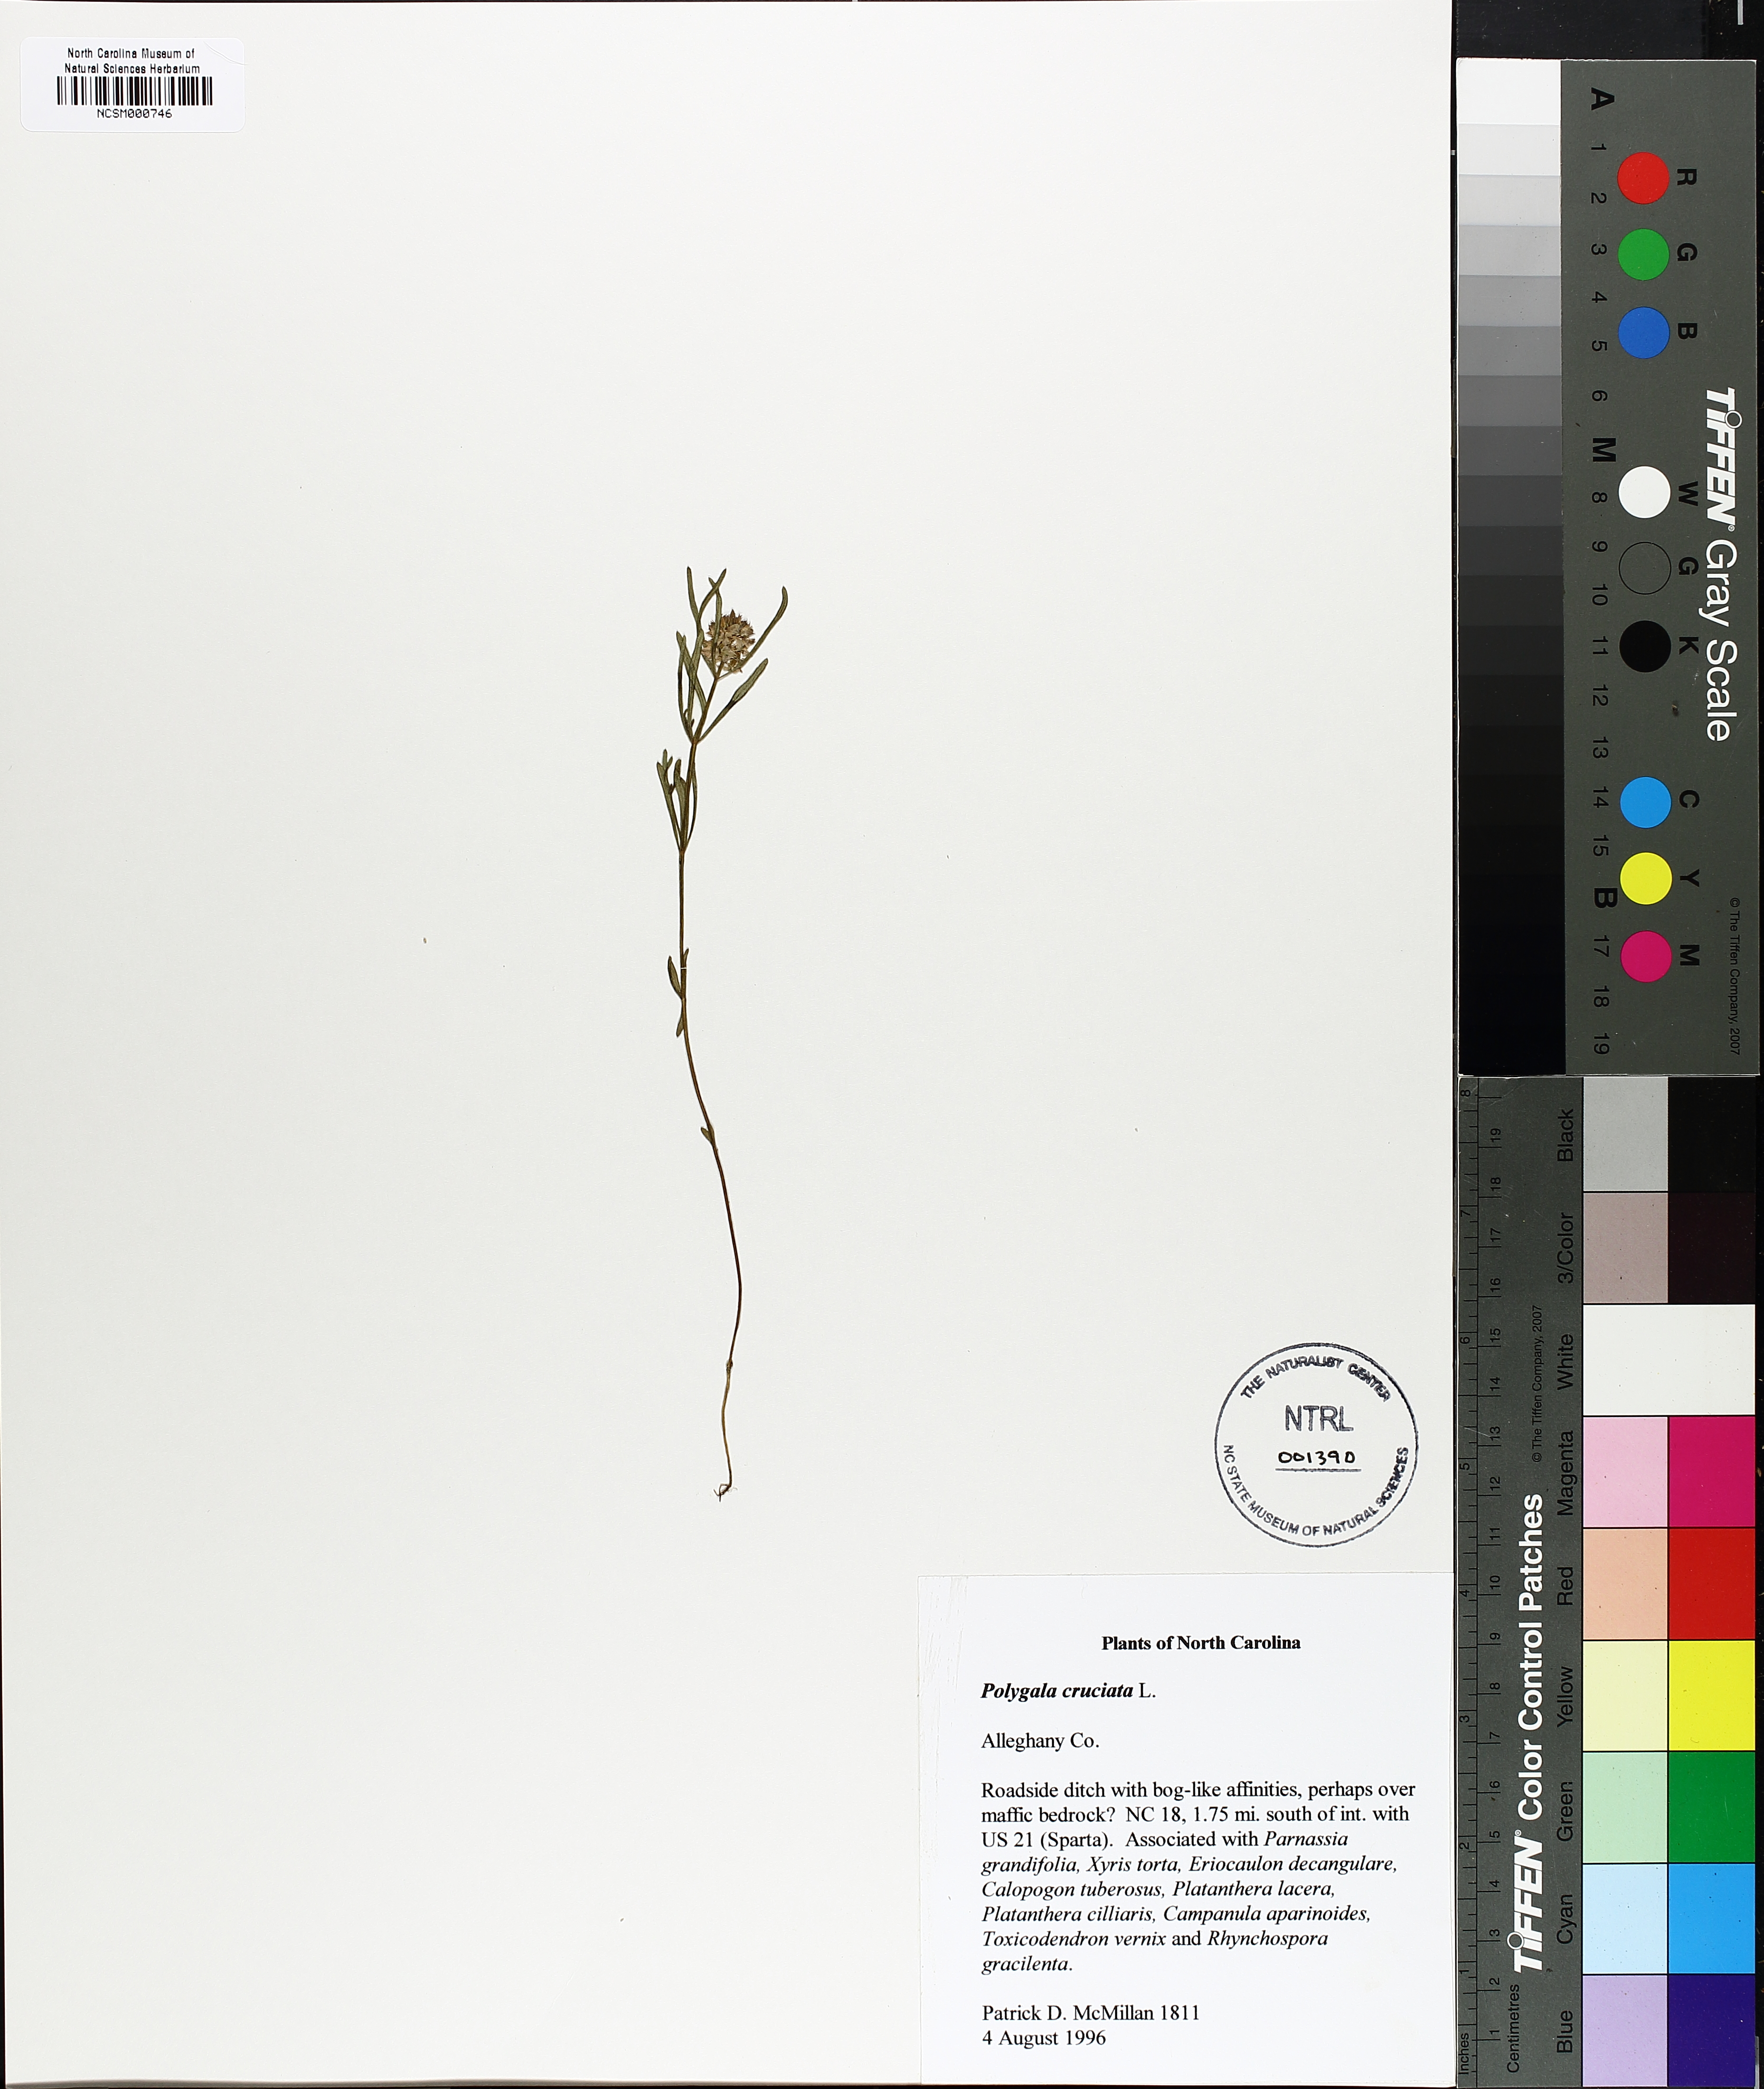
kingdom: Plantae
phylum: Tracheophyta
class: Magnoliopsida
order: Fabales
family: Polygalaceae
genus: Polygala
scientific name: Polygala cruciata
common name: Drumheads
